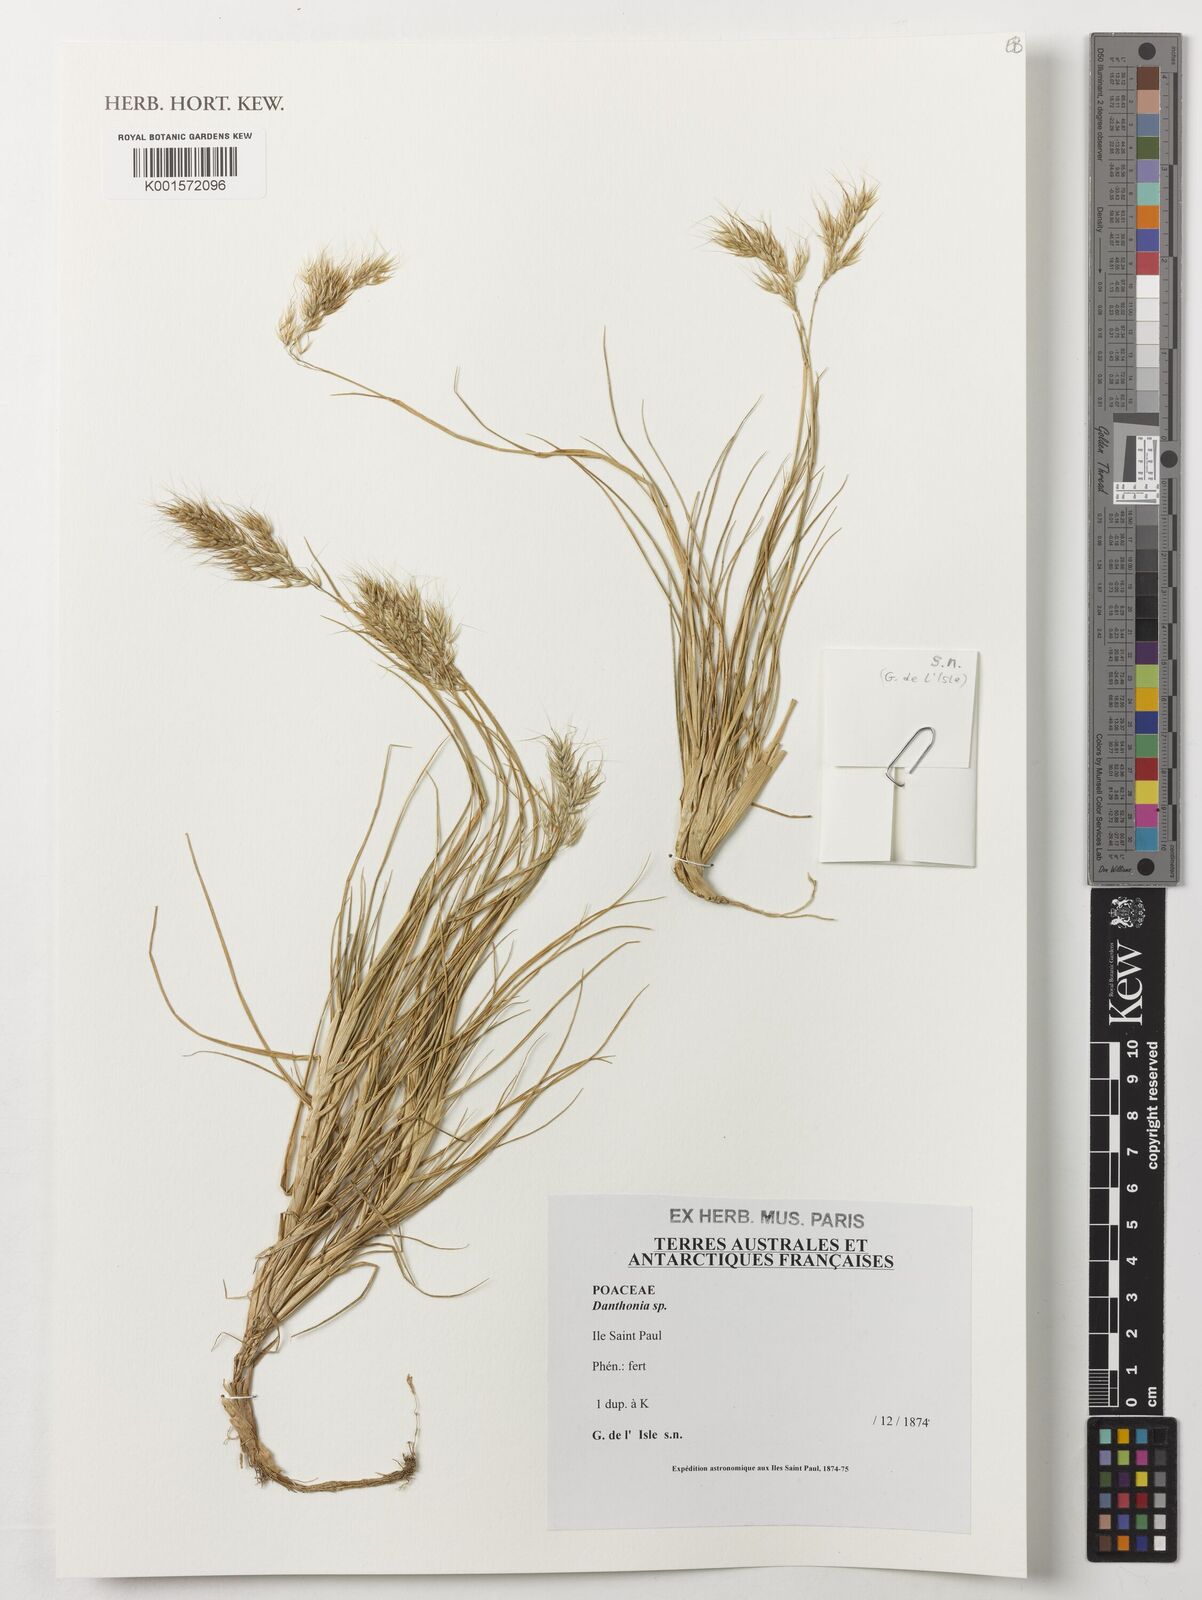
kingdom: Plantae
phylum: Tracheophyta
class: Liliopsida
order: Poales
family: Poaceae
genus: Danthonia
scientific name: Danthonia
